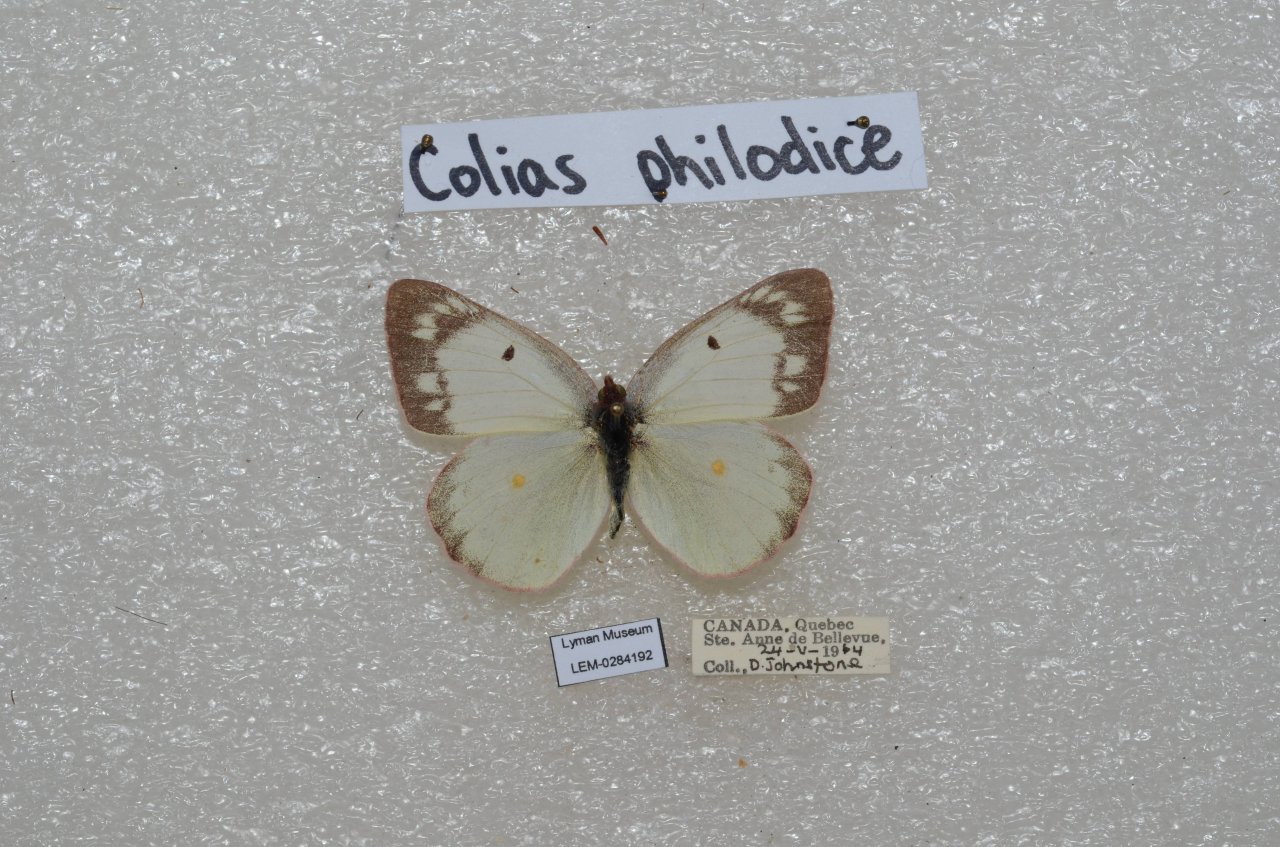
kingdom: Animalia
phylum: Arthropoda
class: Insecta
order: Lepidoptera
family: Pieridae
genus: Colias
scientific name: Colias philodice
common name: Clouded Sulphur
